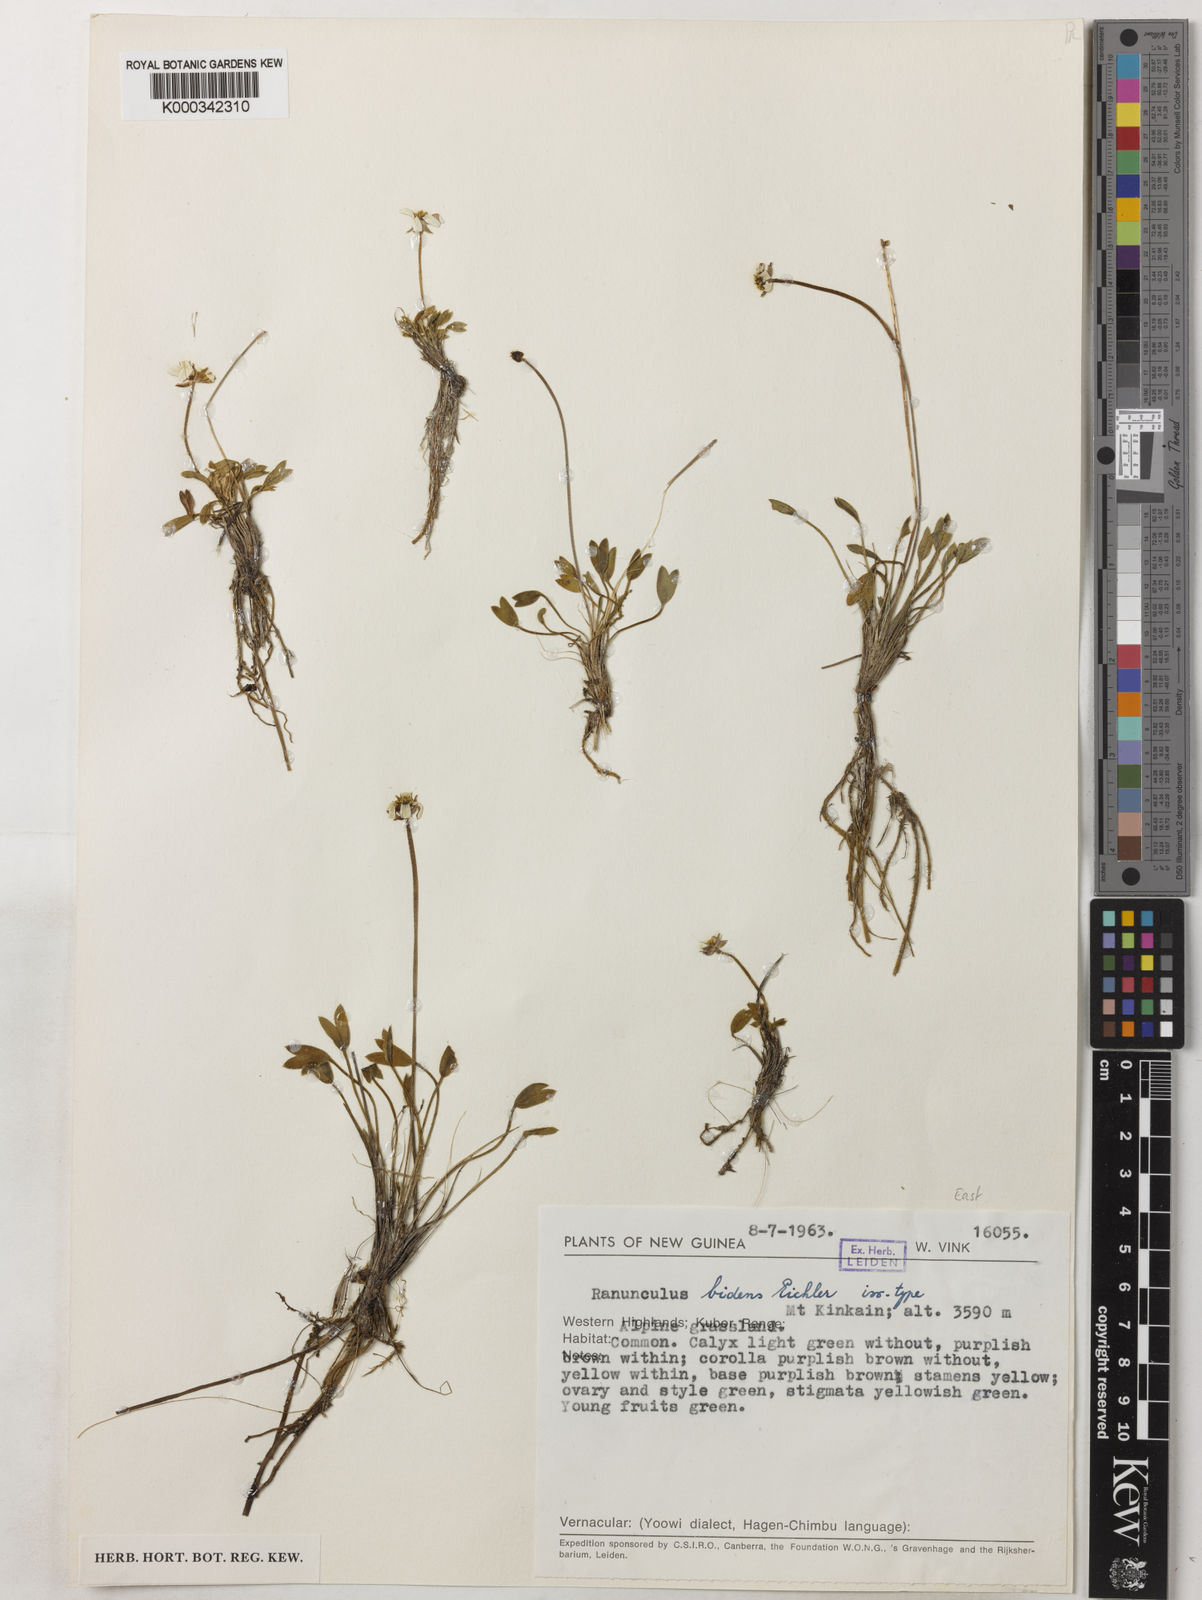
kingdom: Plantae
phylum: Tracheophyta
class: Magnoliopsida
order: Ranunculales
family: Ranunculaceae
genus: Ranunculus
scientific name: Ranunculus bidens
